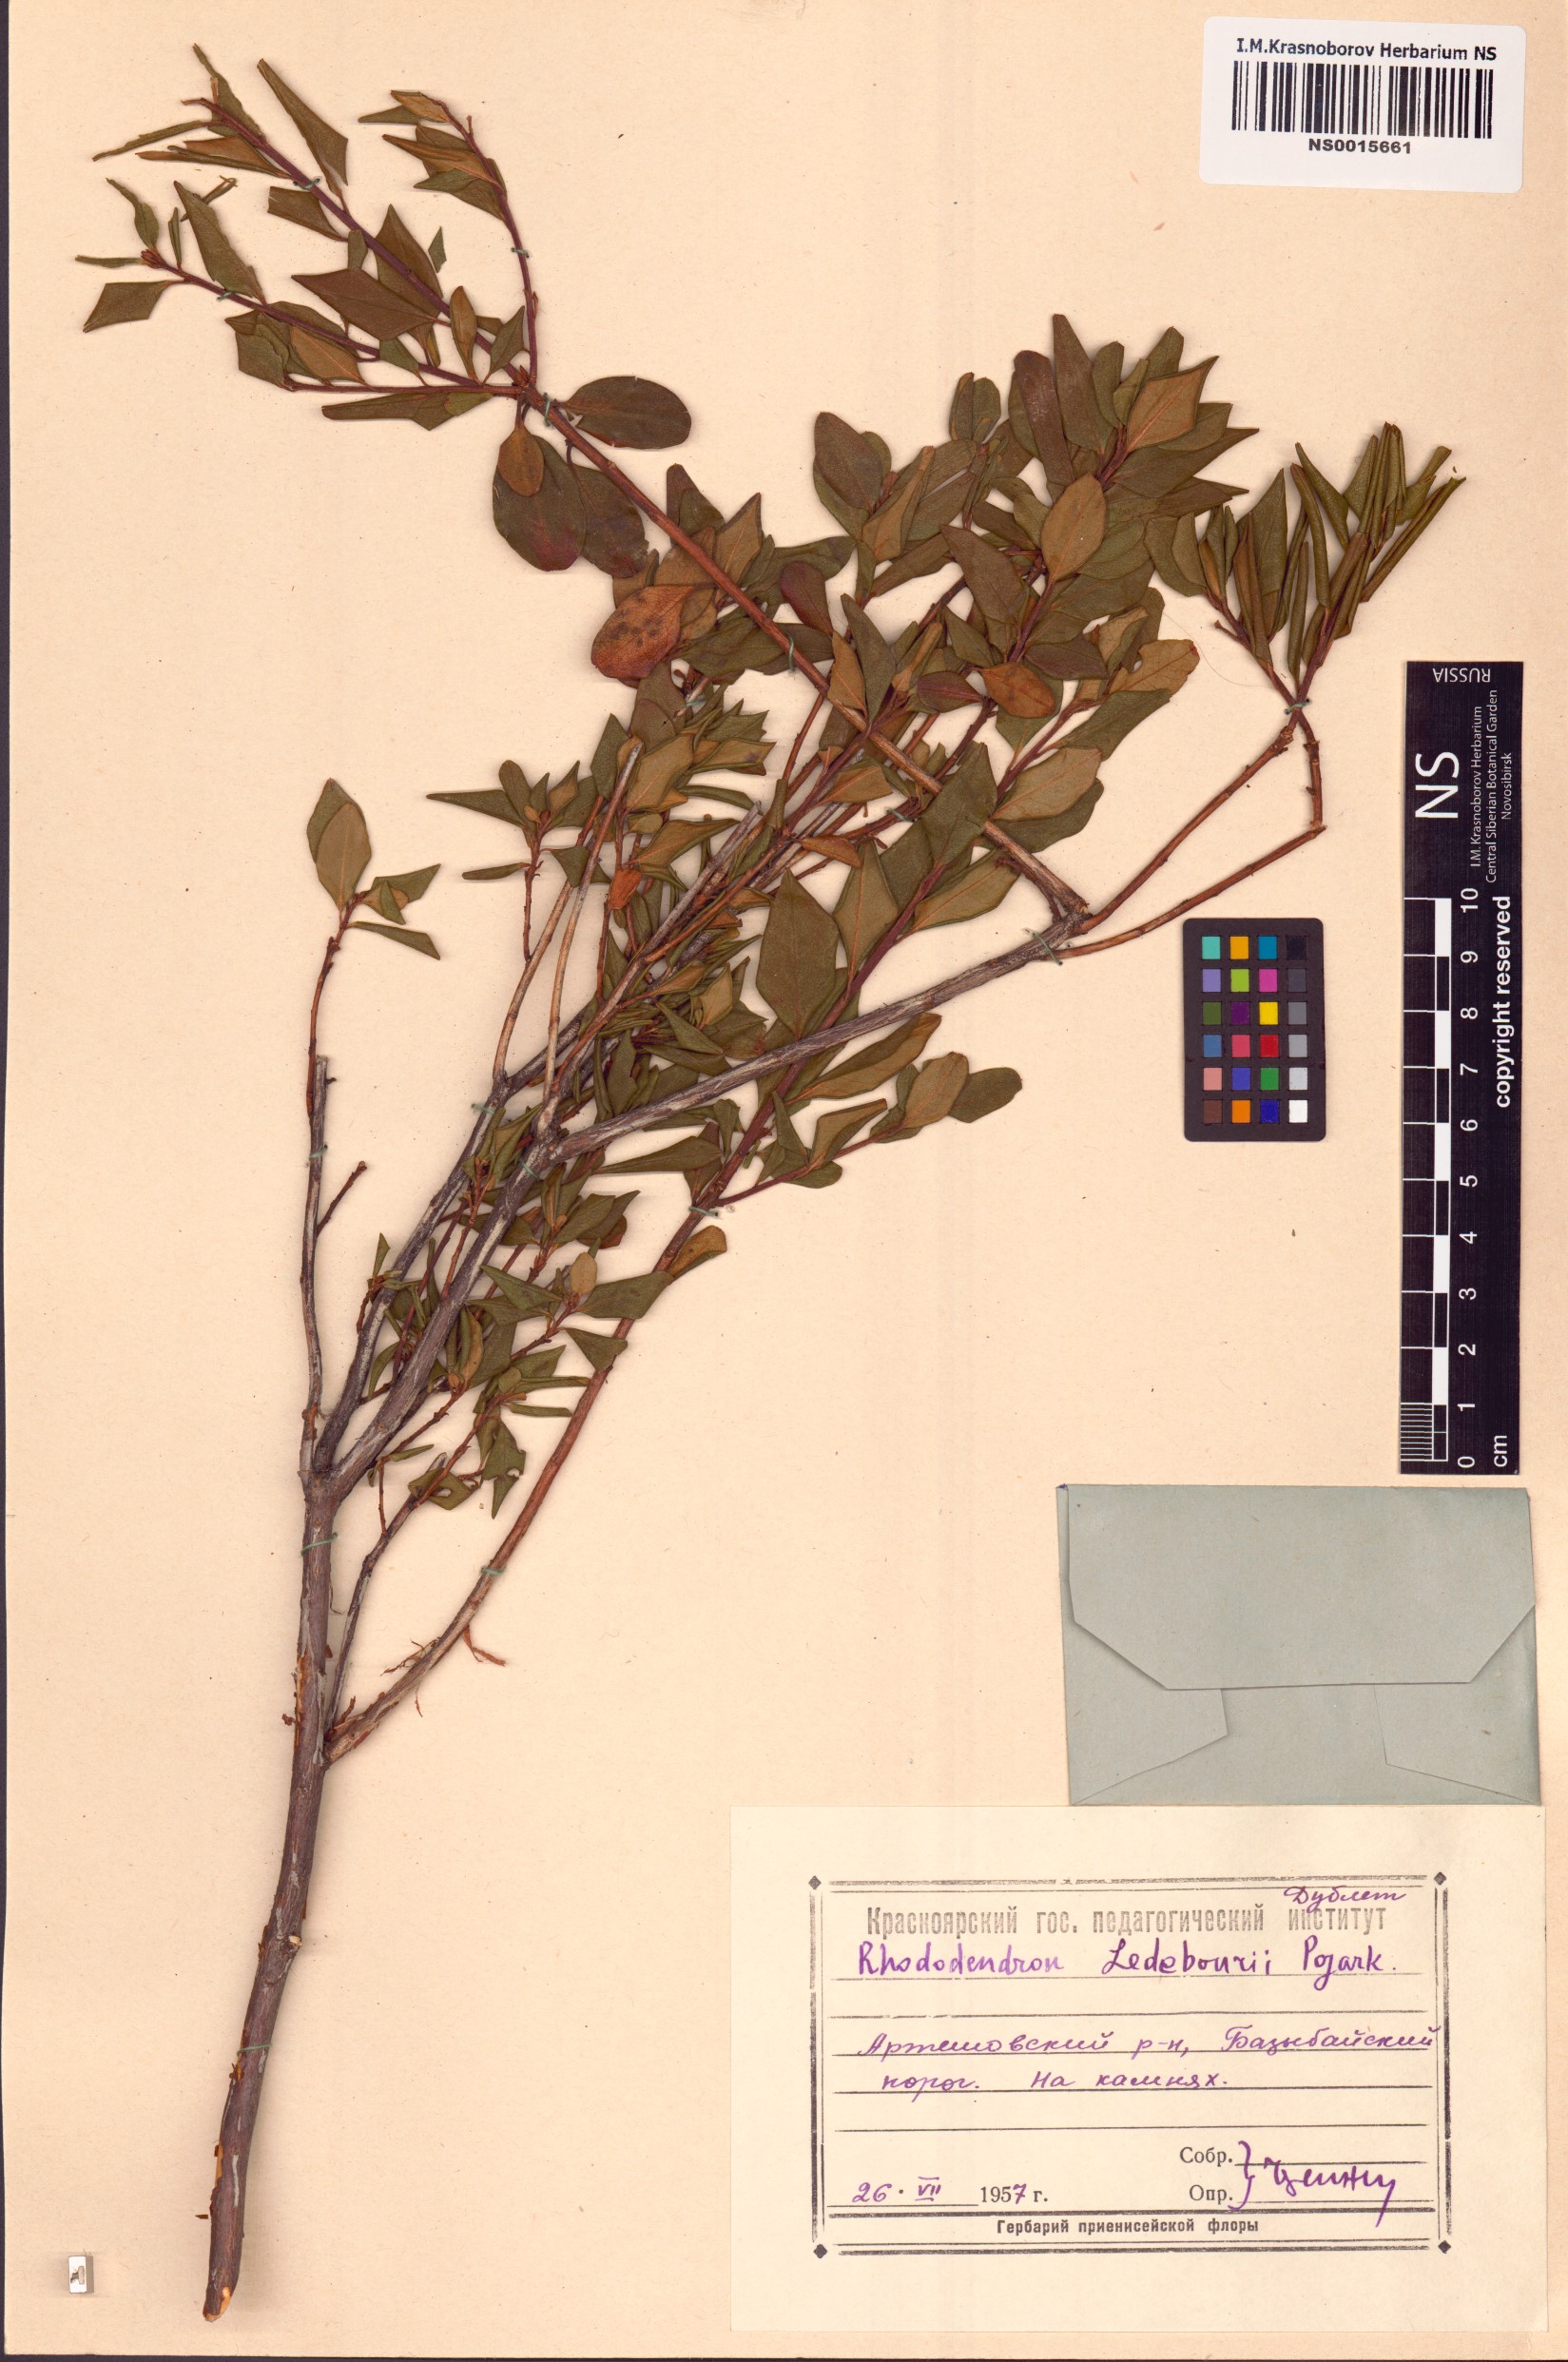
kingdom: Plantae
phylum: Tracheophyta
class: Magnoliopsida
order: Ericales
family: Ericaceae
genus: Rhododendron
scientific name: Rhododendron dauricum
